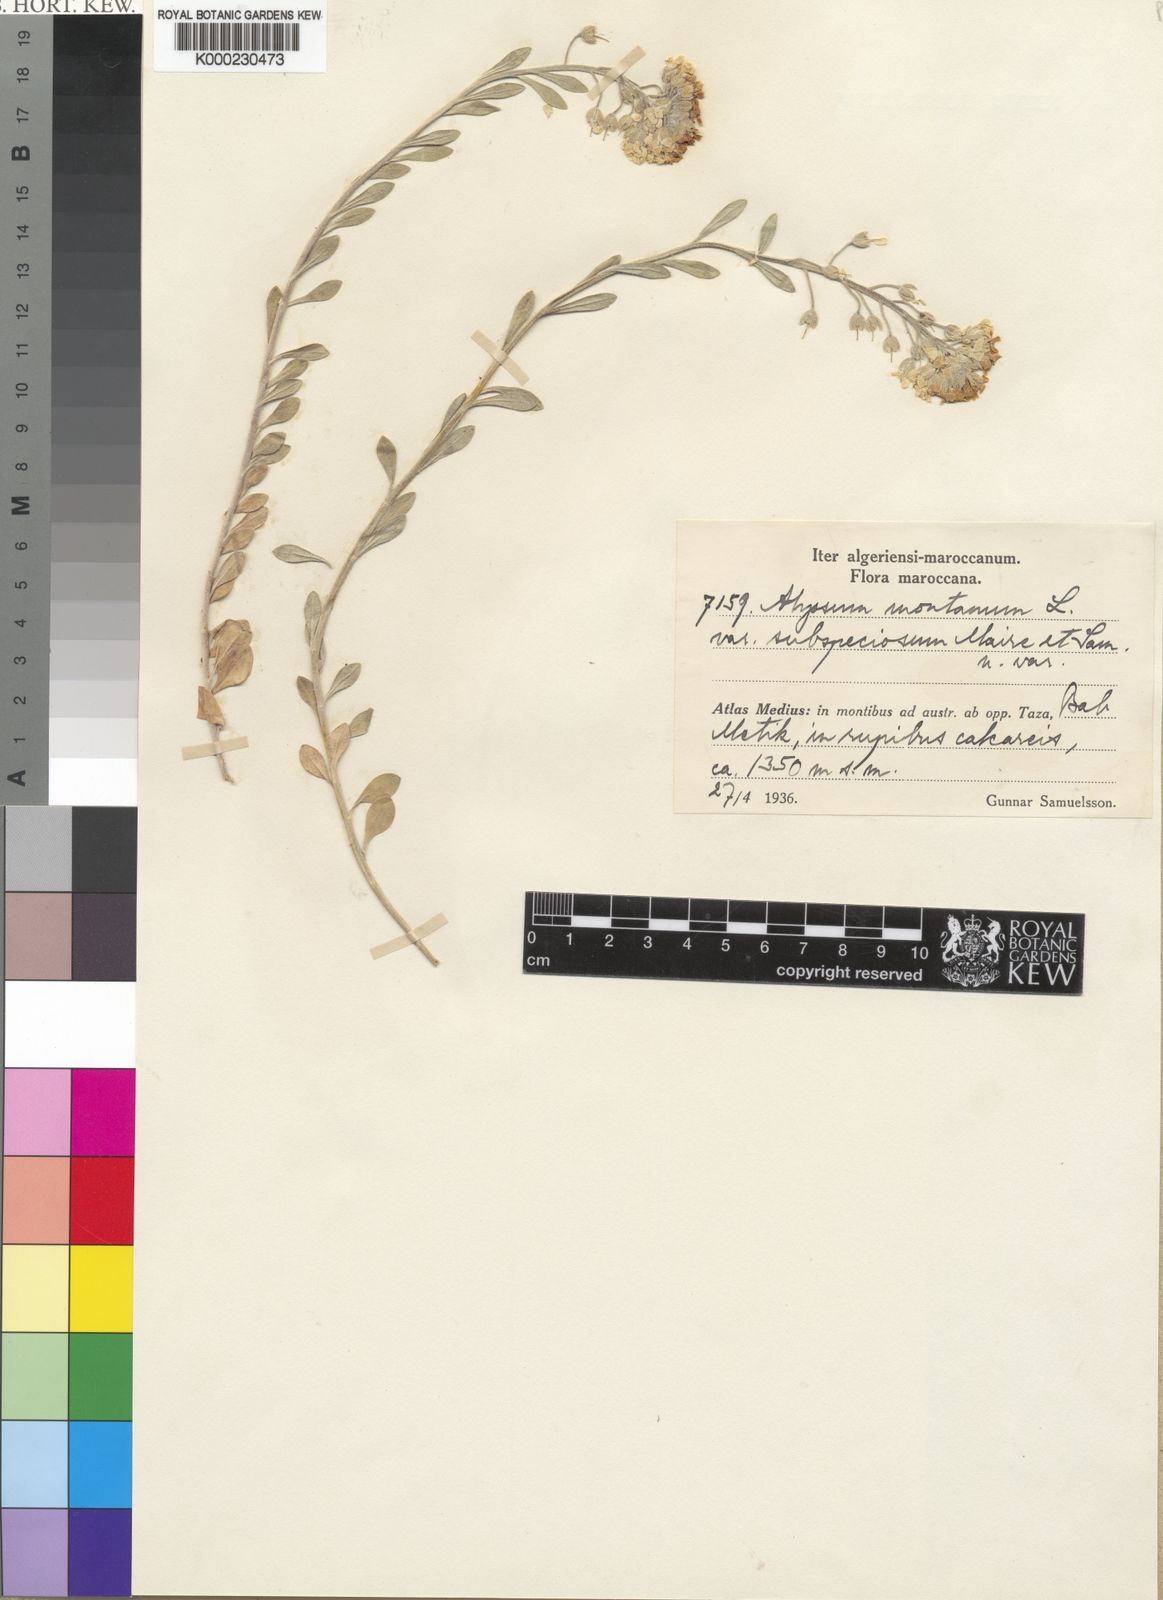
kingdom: Plantae
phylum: Tracheophyta
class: Magnoliopsida
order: Brassicales
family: Brassicaceae
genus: Alyssum
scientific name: Alyssum montanum
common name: Mountain alison
